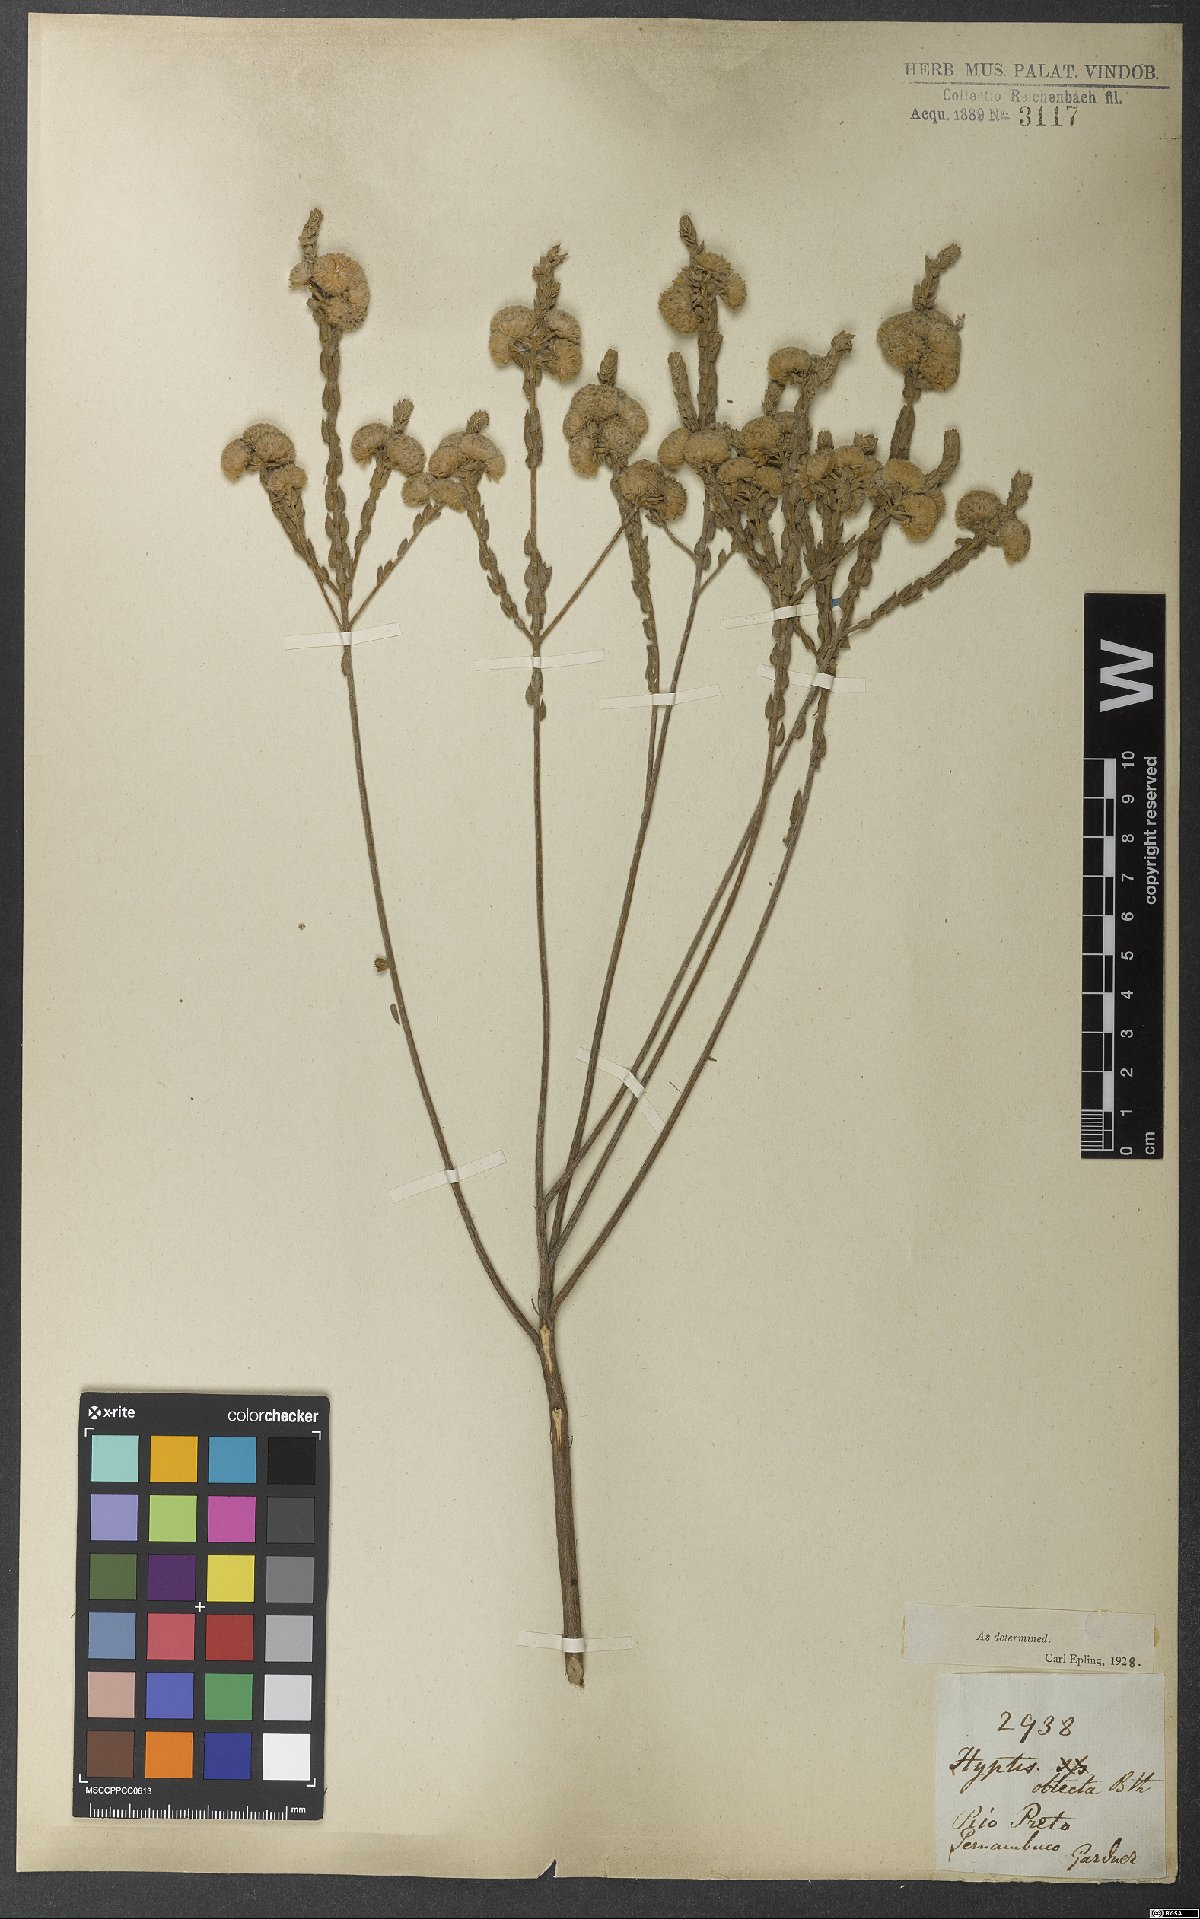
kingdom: Plantae
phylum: Tracheophyta
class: Magnoliopsida
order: Lamiales
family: Lamiaceae
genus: Hyptis
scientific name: Hyptis obtecta
